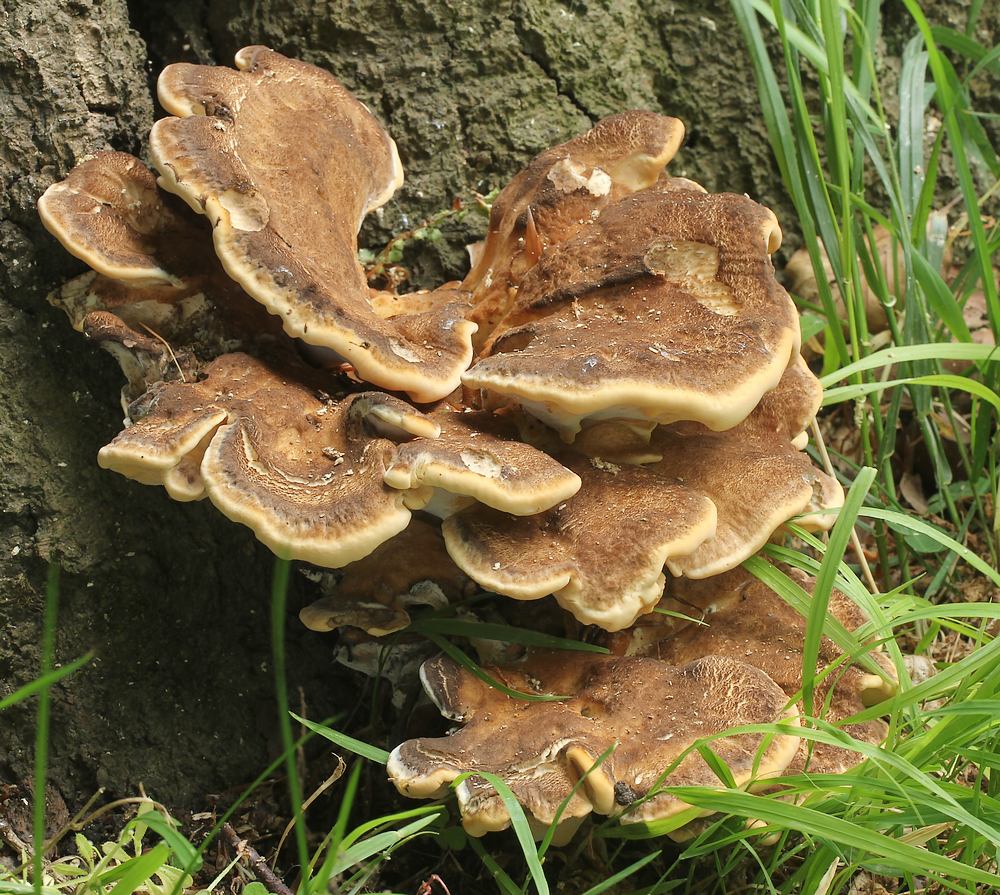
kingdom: Fungi
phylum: Basidiomycota
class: Agaricomycetes
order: Polyporales
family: Meripilaceae
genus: Meripilus
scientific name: Meripilus giganteus
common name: kæmpeporesvamp
